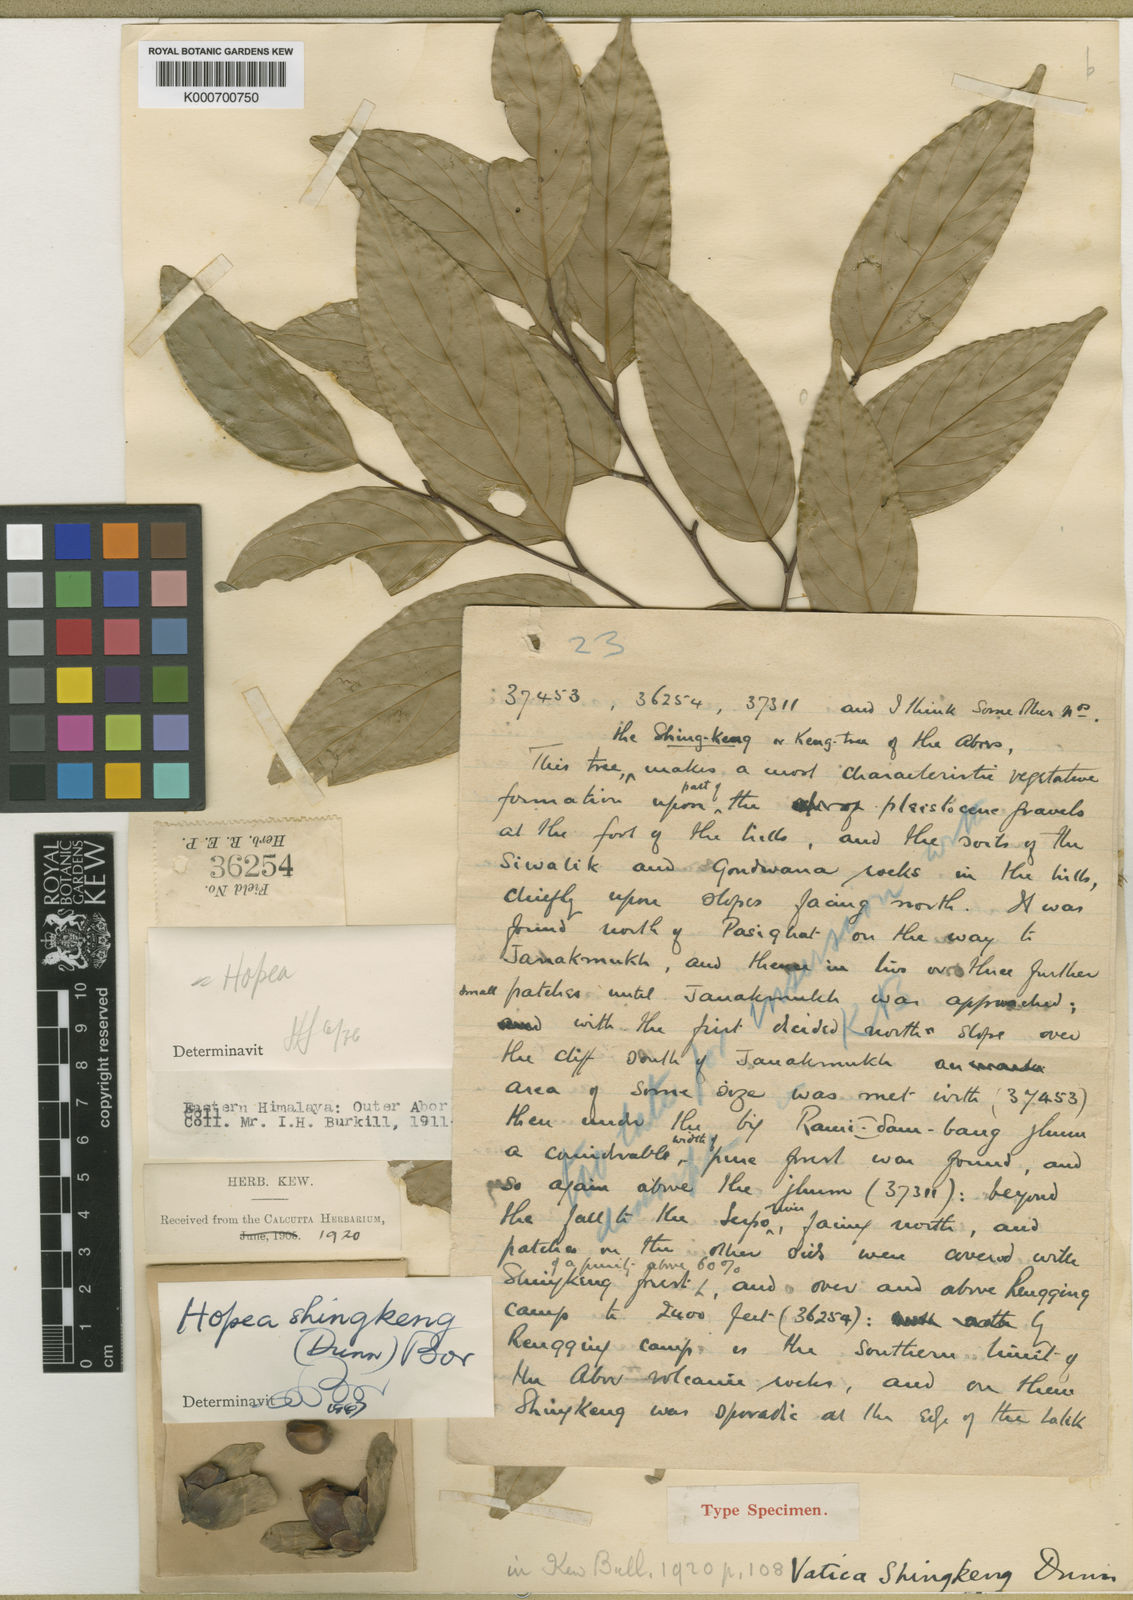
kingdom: Plantae
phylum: Tracheophyta
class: Magnoliopsida
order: Malvales
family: Dipterocarpaceae
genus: Hopea
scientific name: Hopea shingkeng
